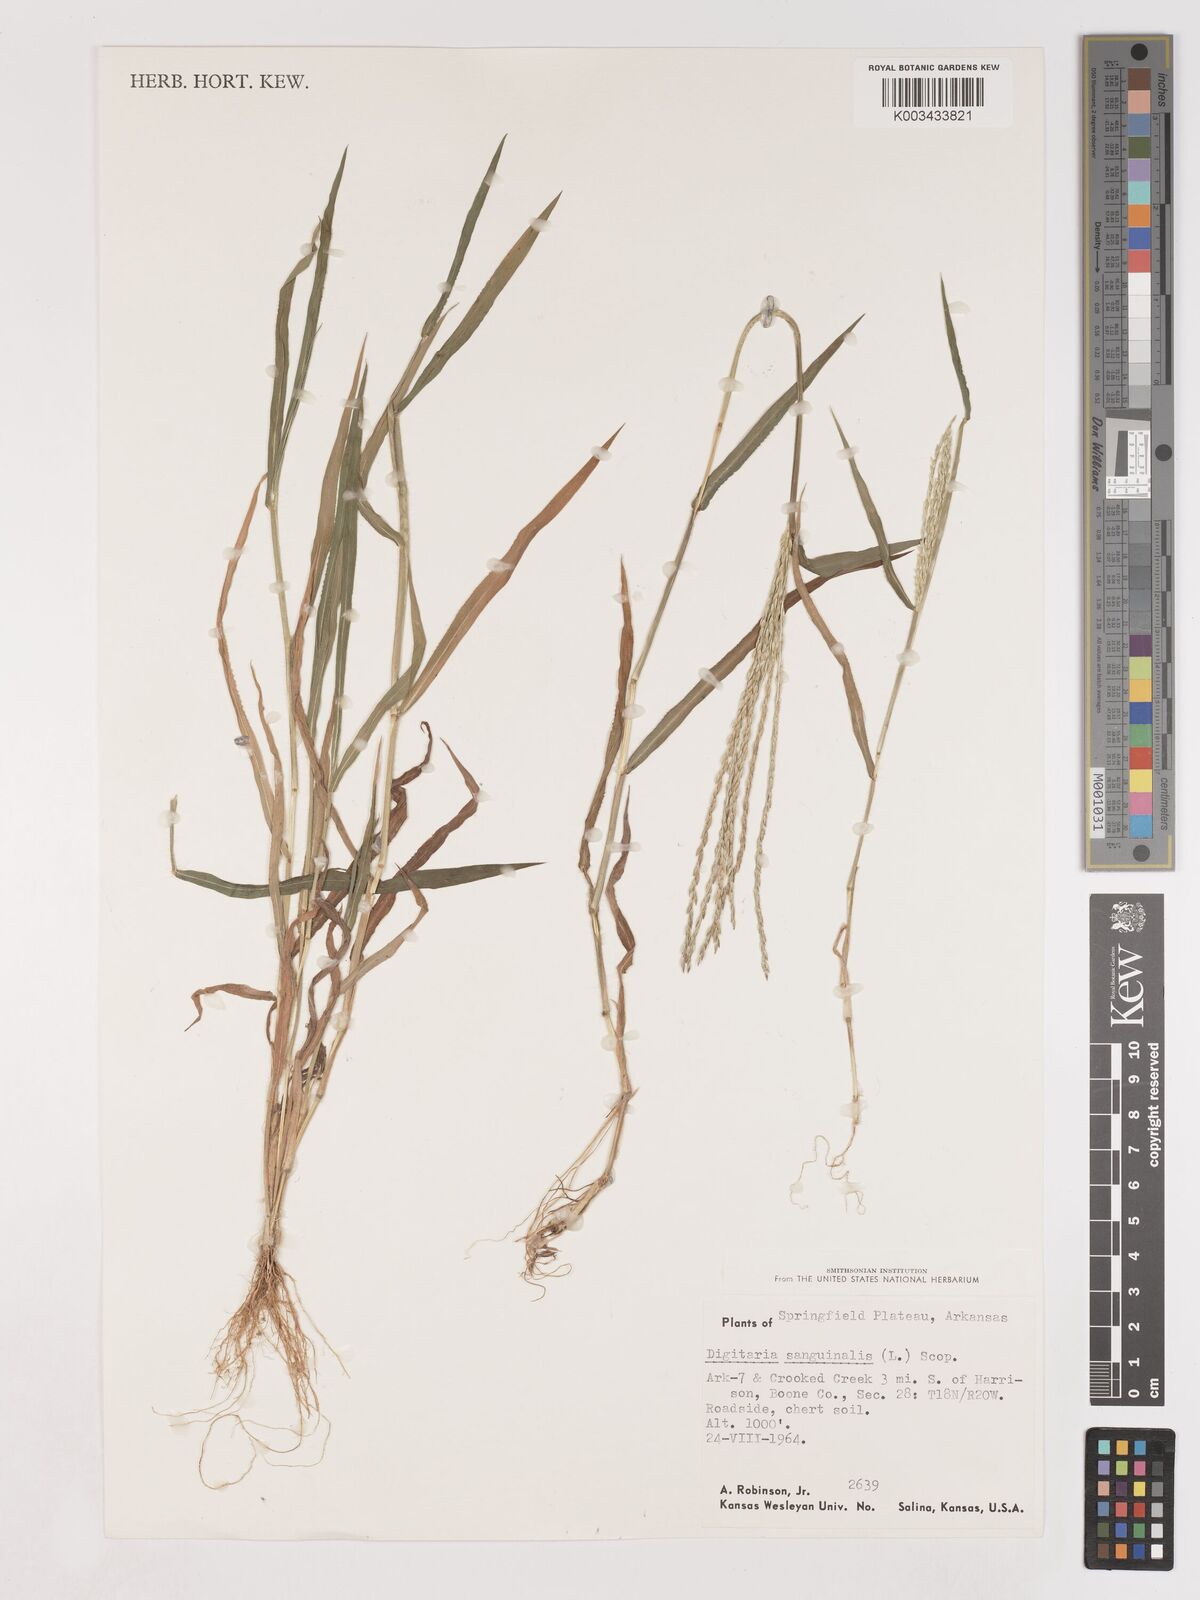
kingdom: Plantae
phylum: Tracheophyta
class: Liliopsida
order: Poales
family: Poaceae
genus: Digitaria
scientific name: Digitaria ciliaris
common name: Tropical finger-grass
